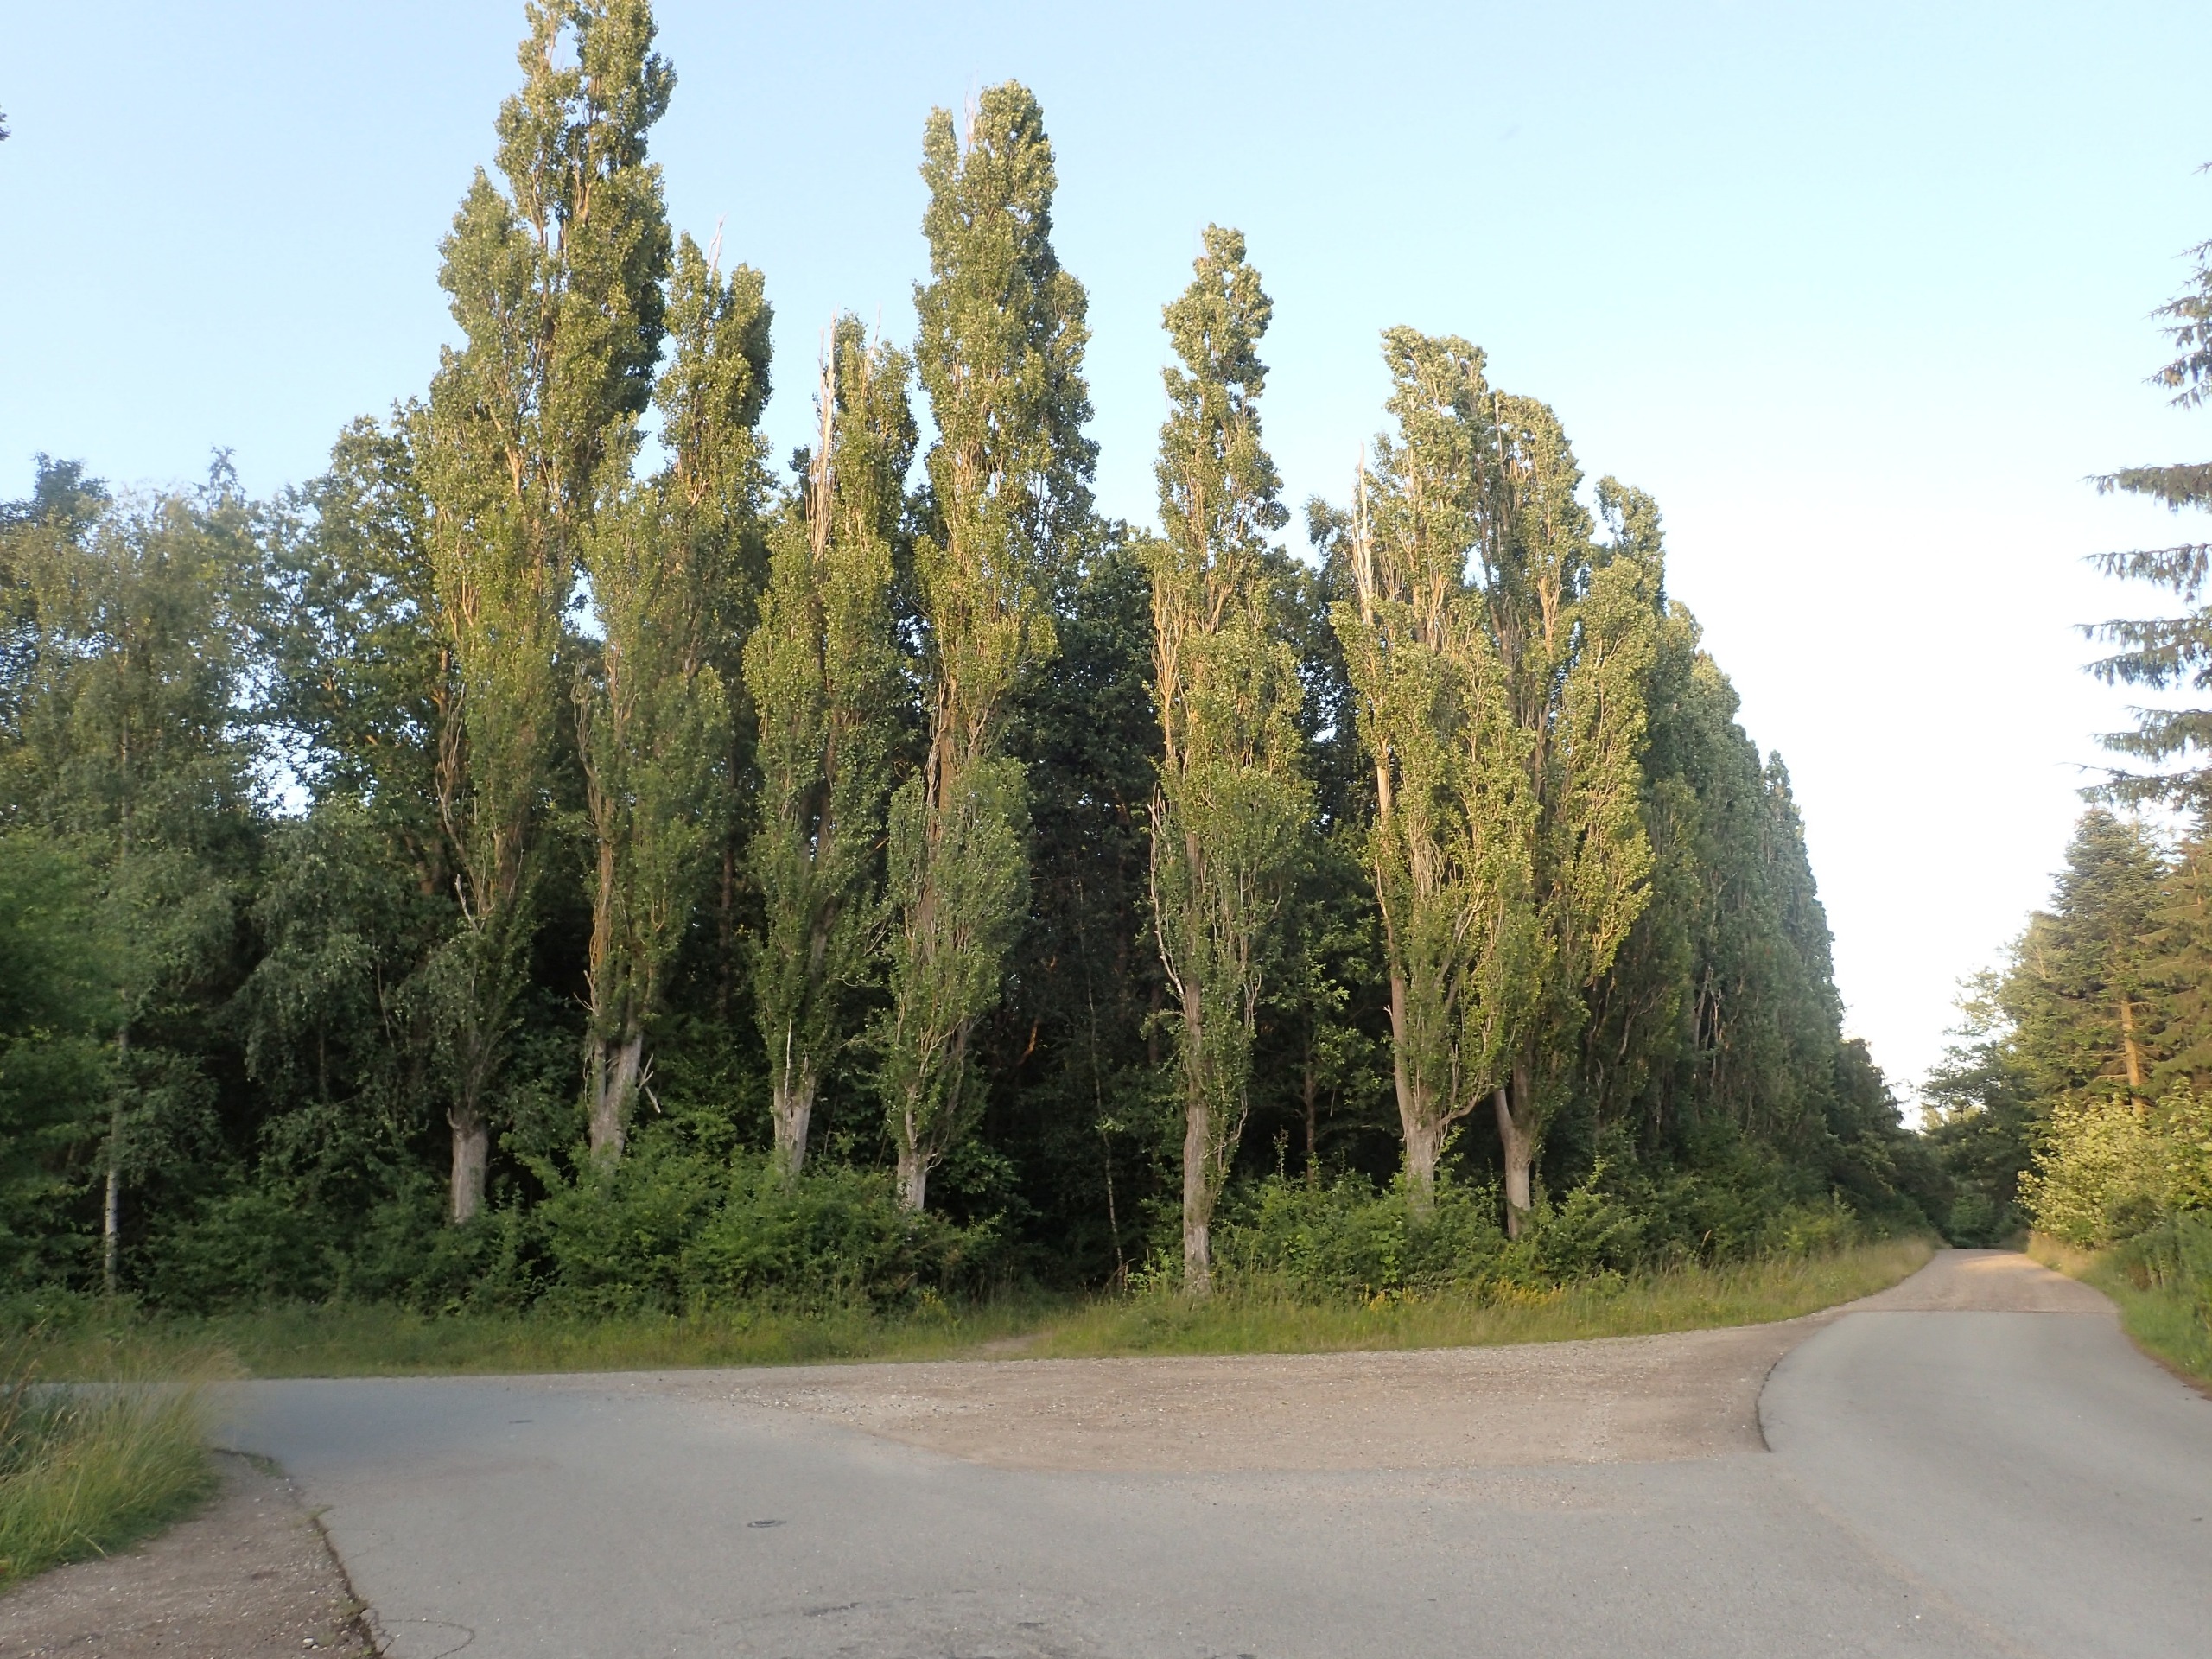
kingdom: Plantae
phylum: Tracheophyta
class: Magnoliopsida
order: Malpighiales
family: Salicaceae
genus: Populus
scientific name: Populus nigra
